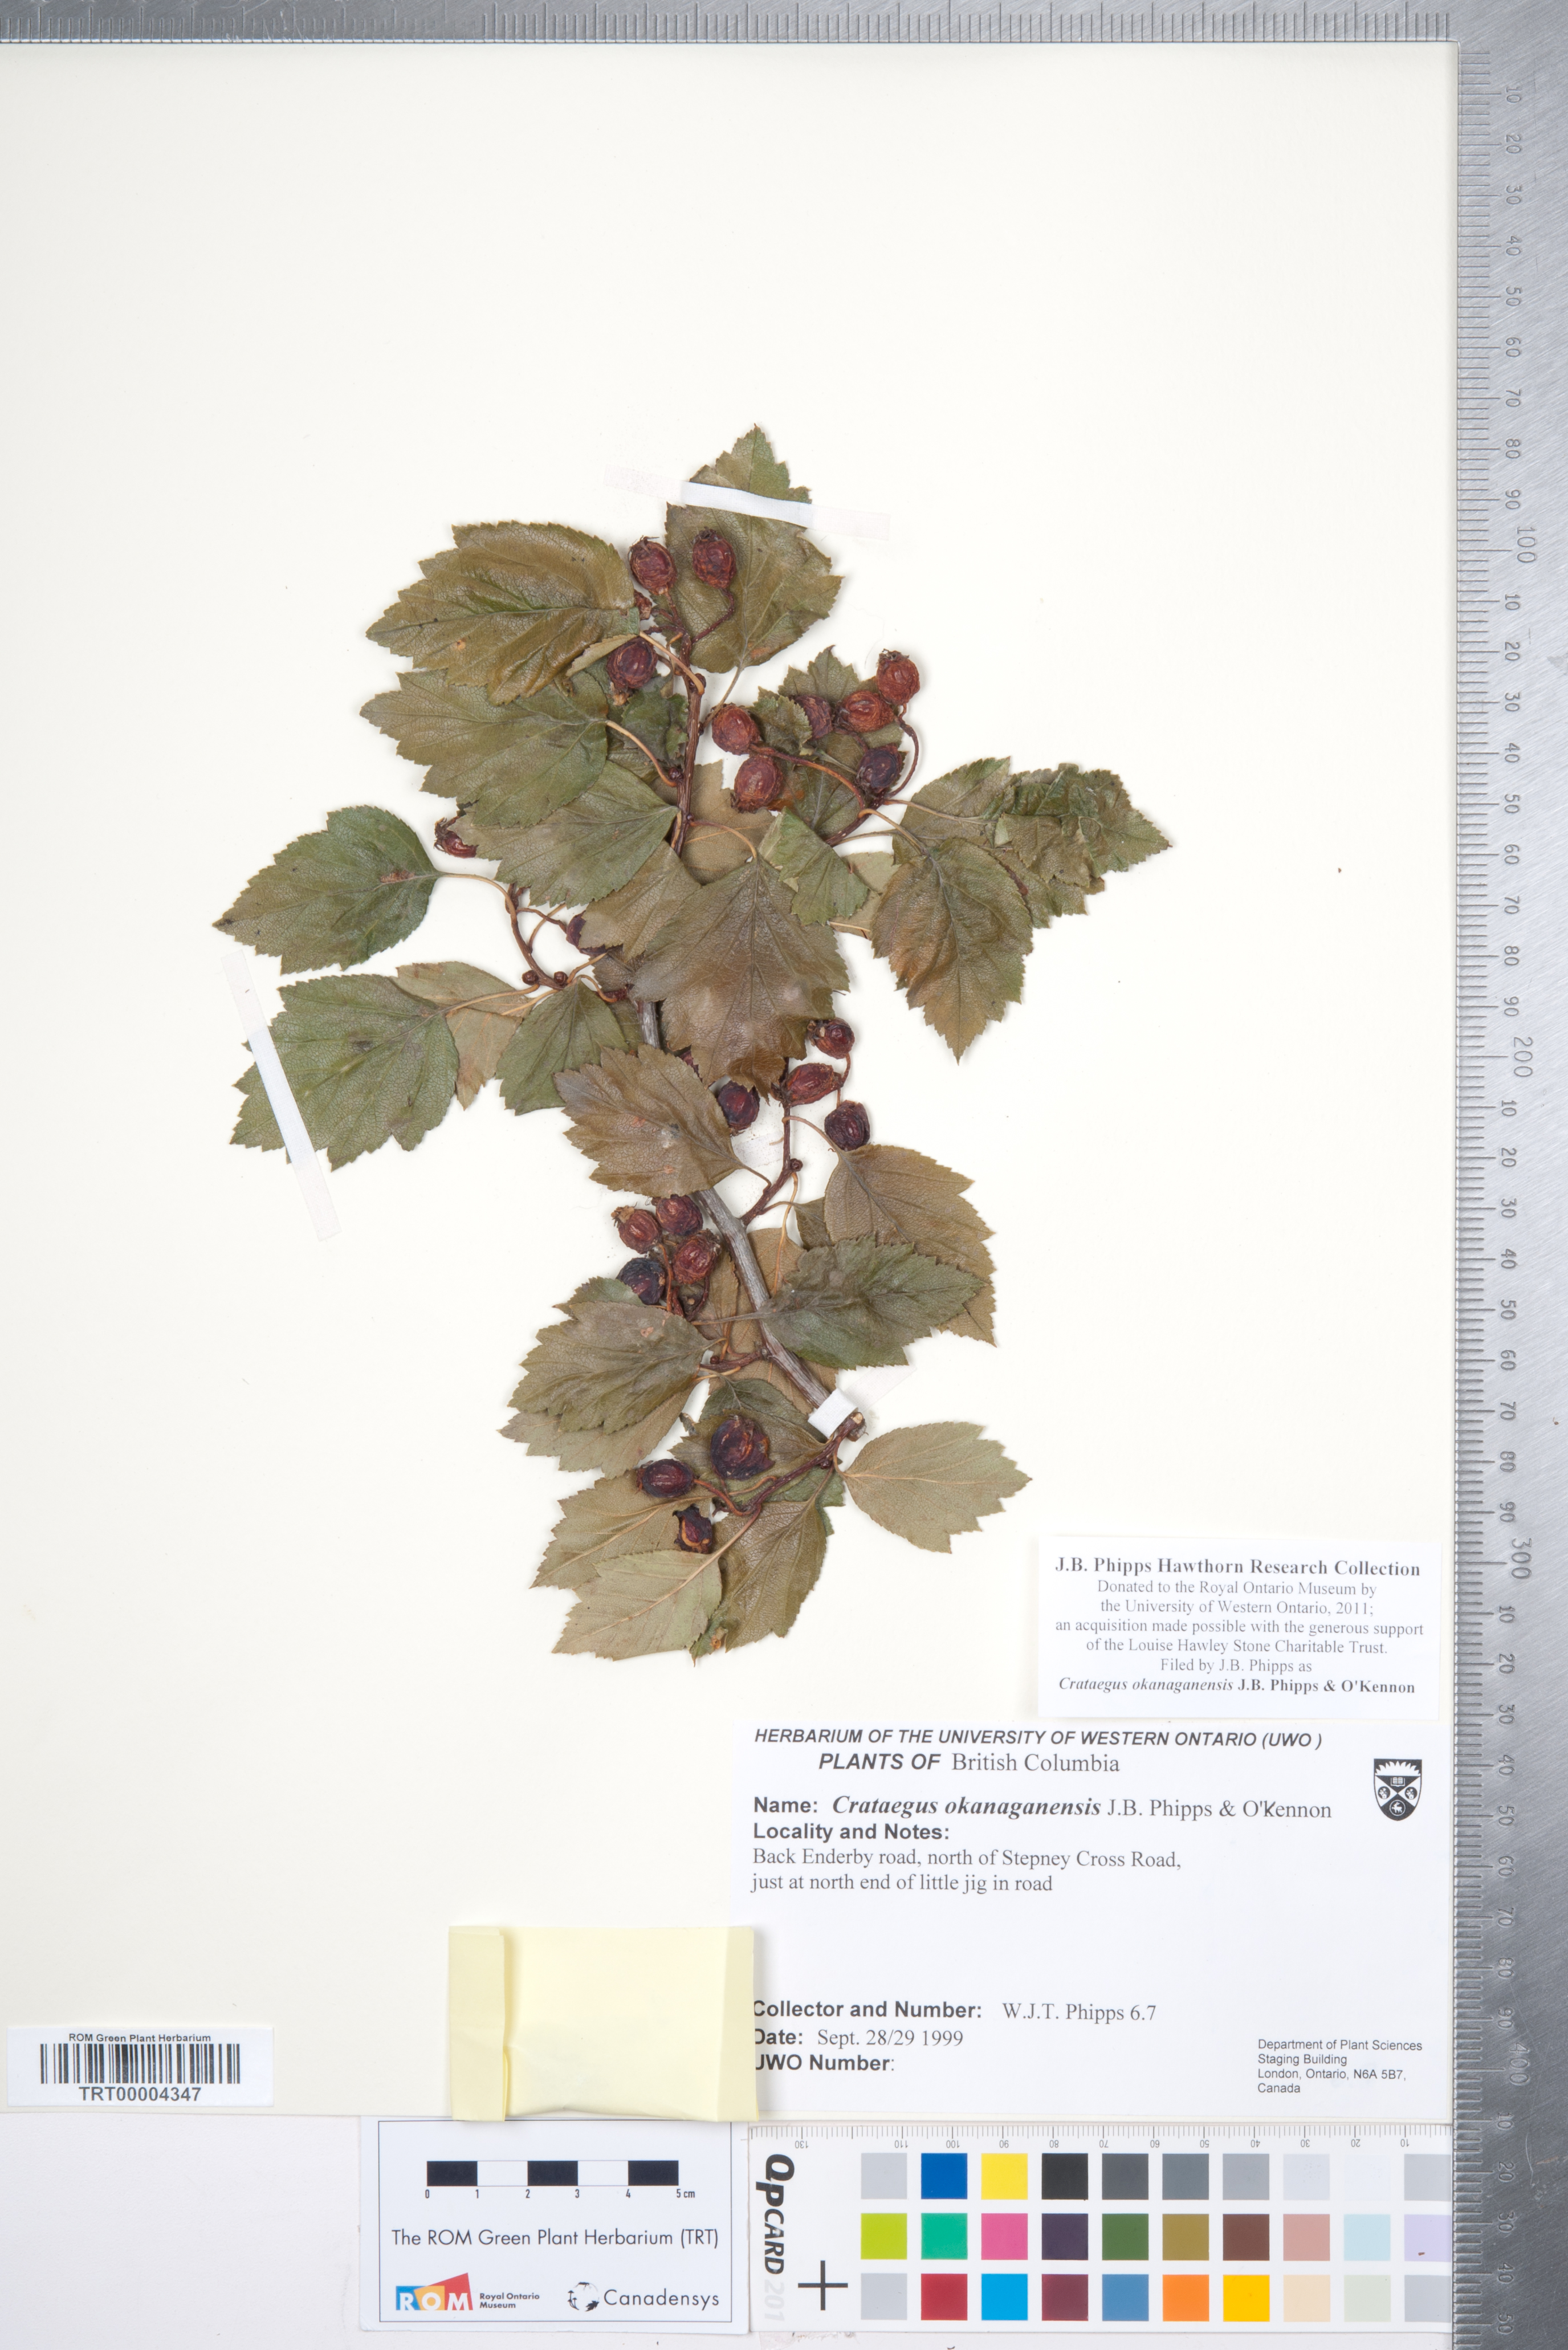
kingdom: Plantae
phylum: Tracheophyta
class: Magnoliopsida
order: Rosales
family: Rosaceae
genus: Crataegus
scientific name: Crataegus okanaganensis
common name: Okanagan valley hawthorn
